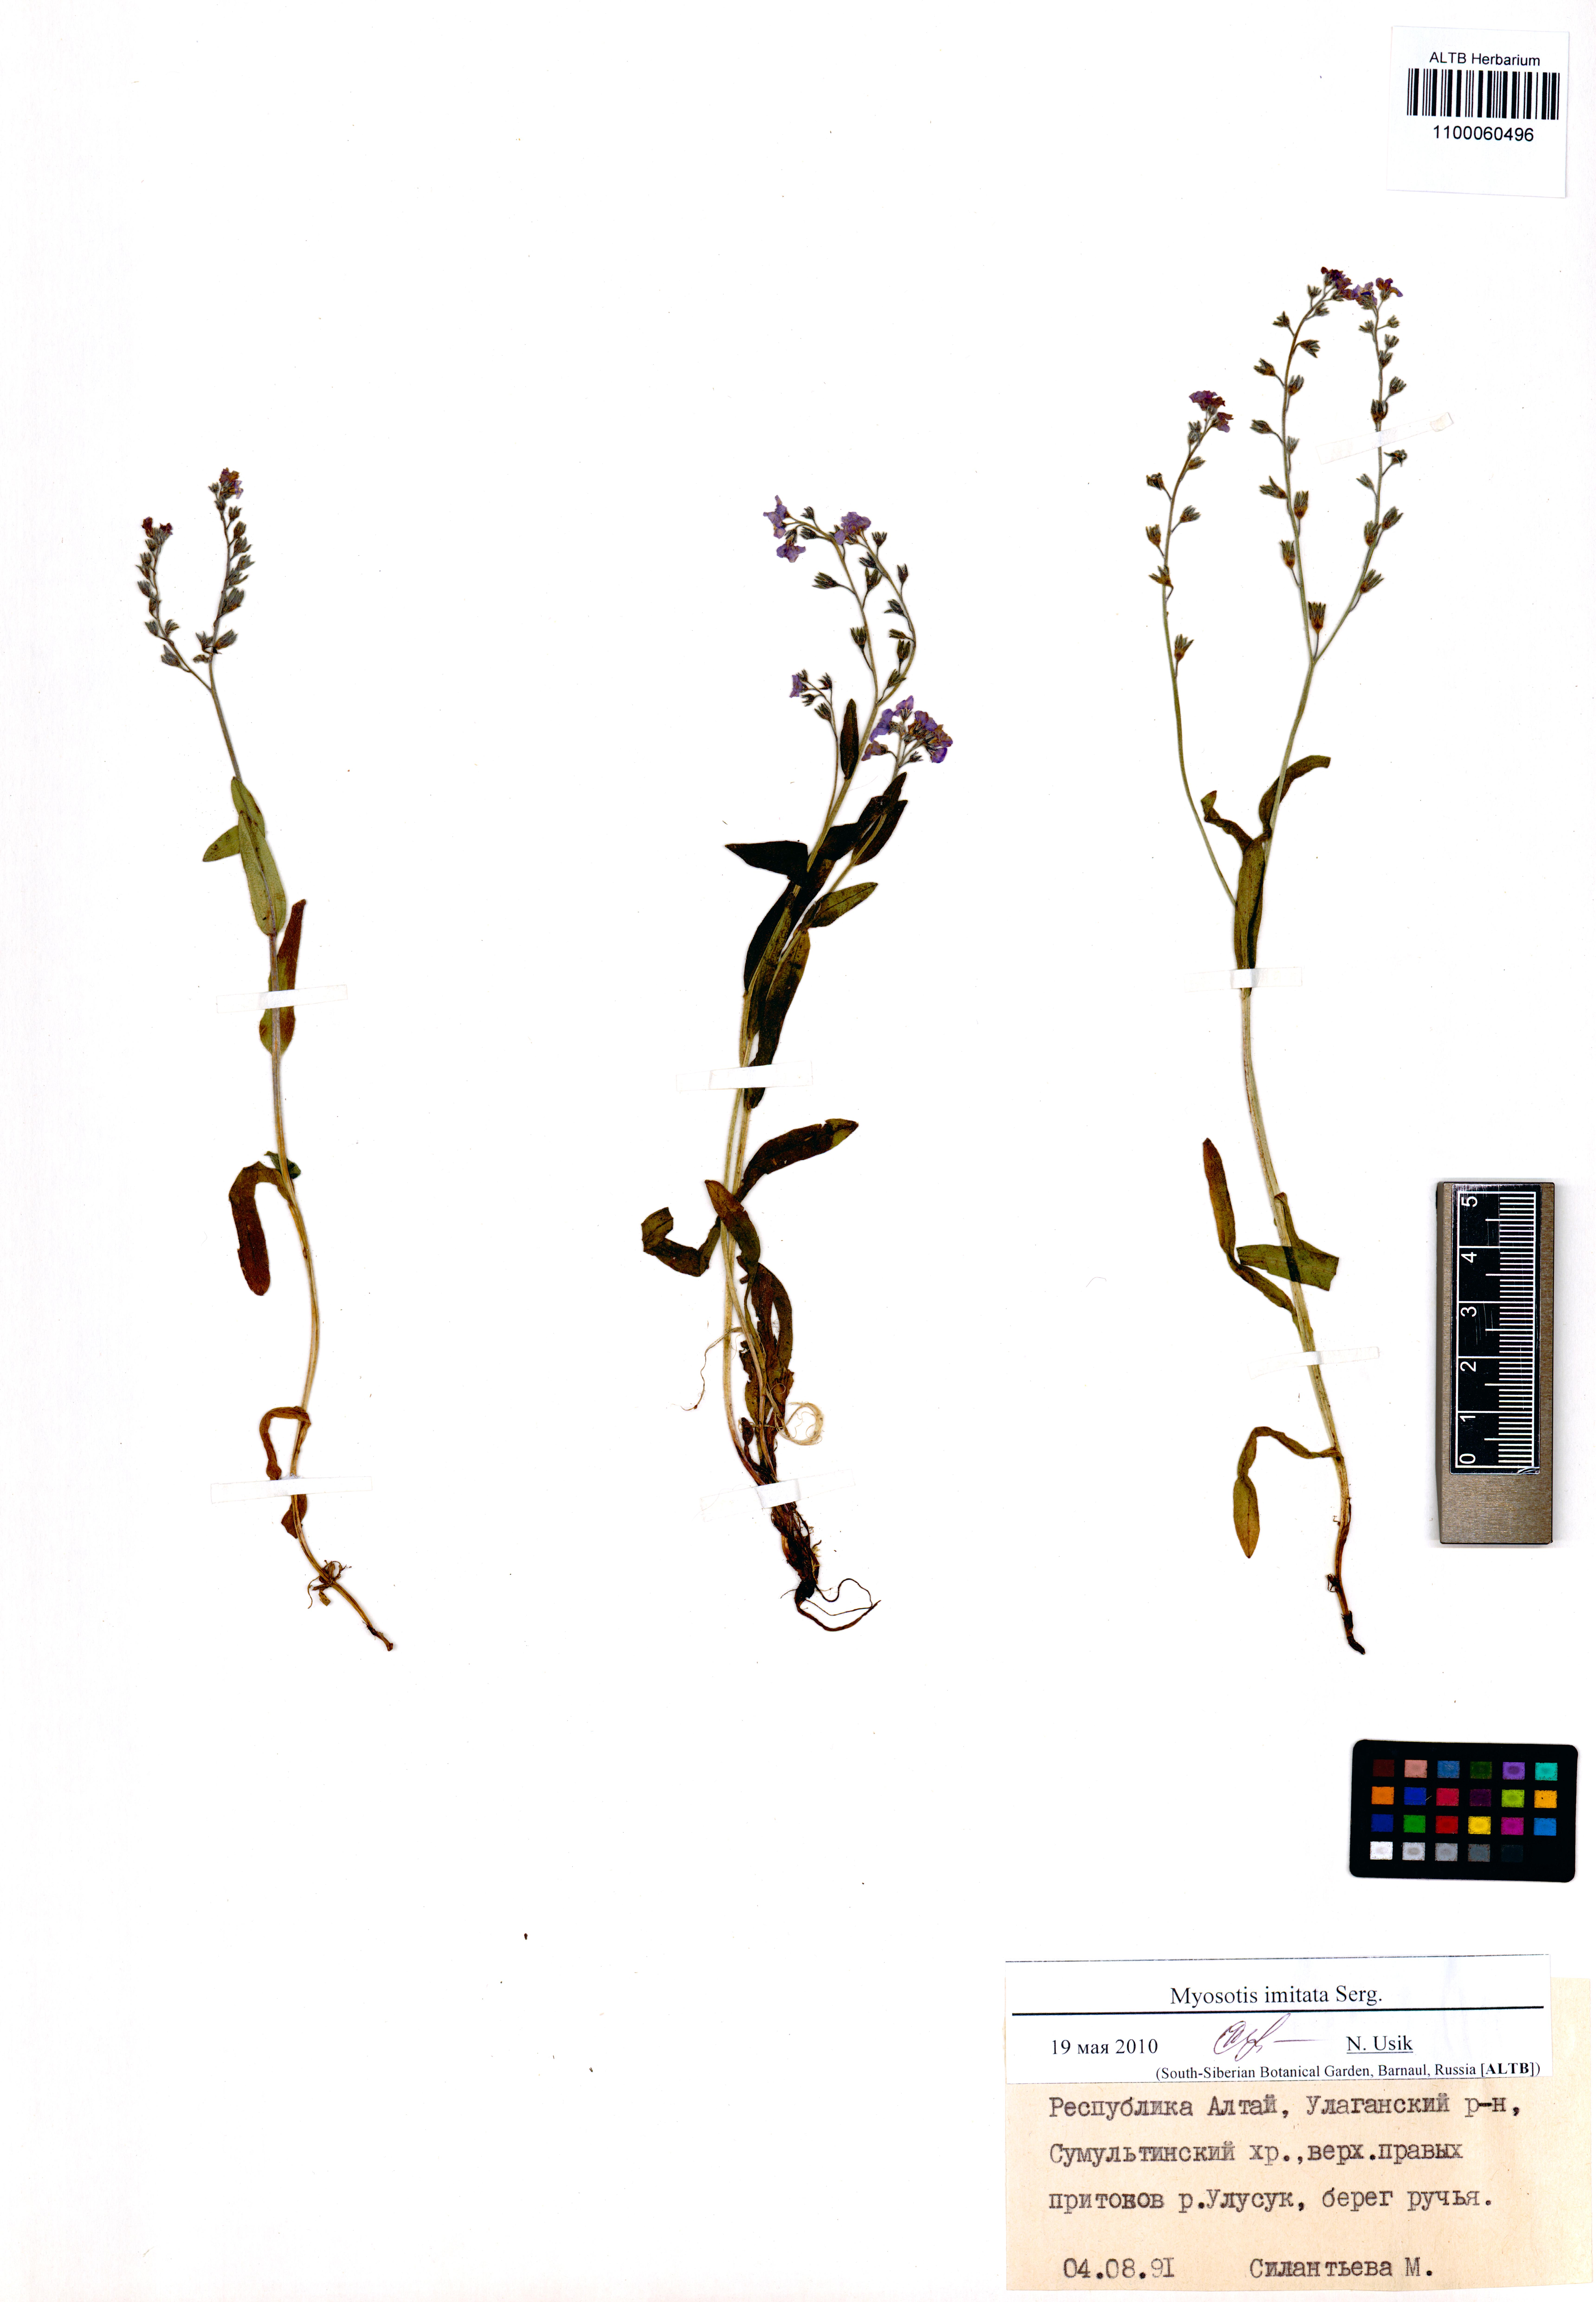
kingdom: Plantae
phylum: Tracheophyta
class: Magnoliopsida
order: Boraginales
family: Boraginaceae
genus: Myosotis
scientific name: Myosotis imitata
